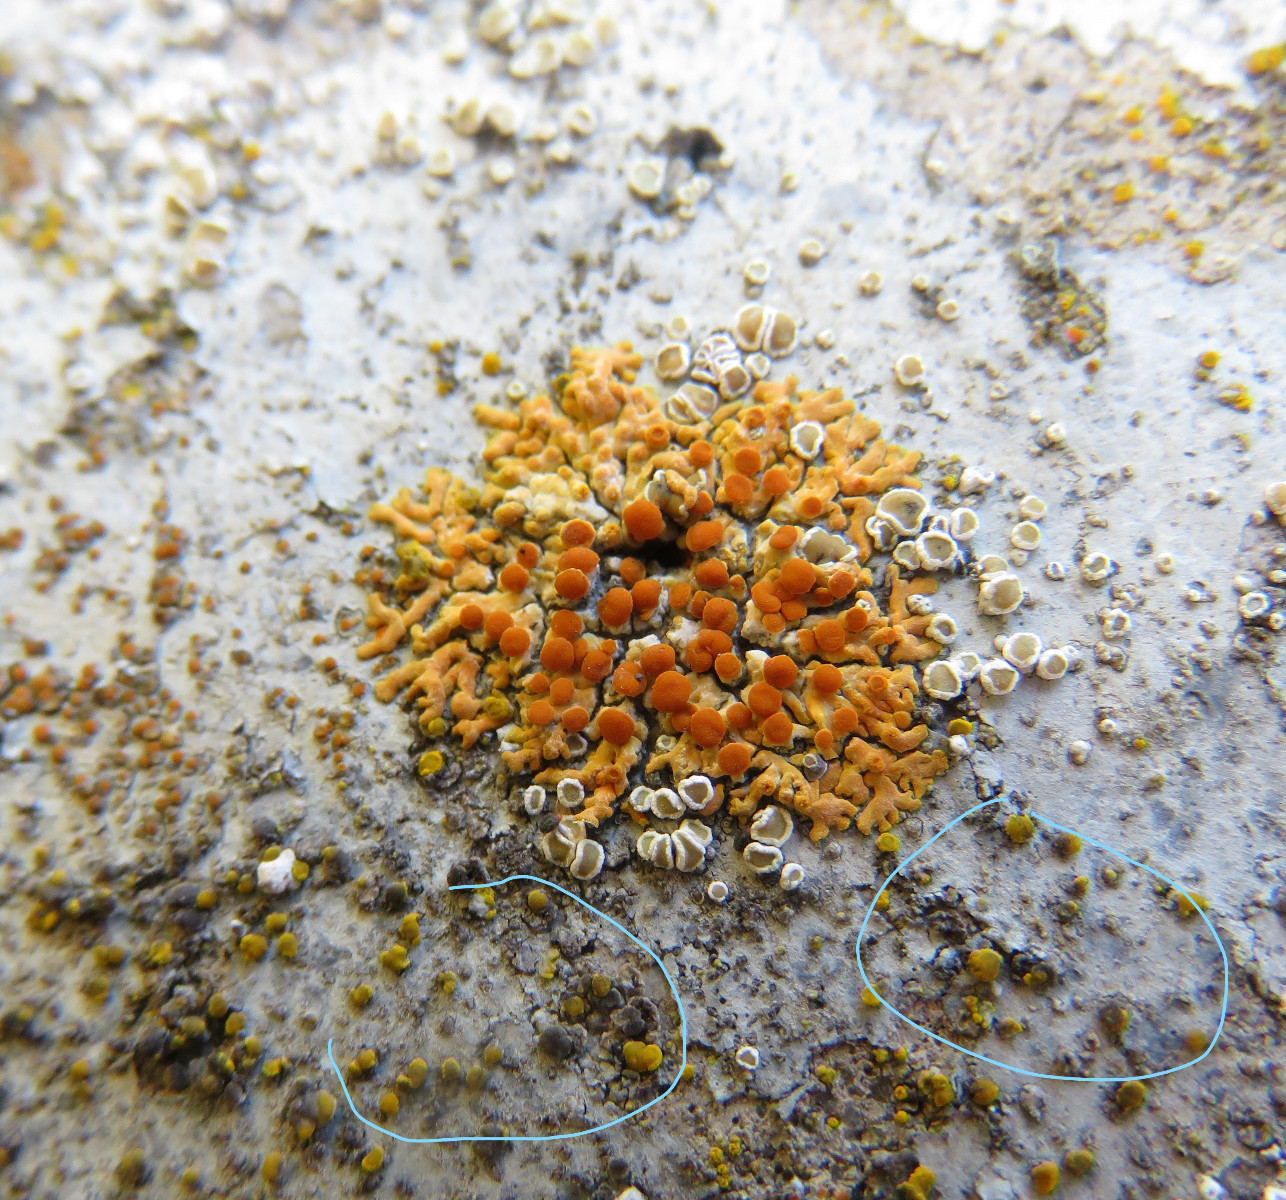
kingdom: Fungi
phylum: Ascomycota
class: Candelariomycetes
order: Candelariales
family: Candelariaceae
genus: Candelariella
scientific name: Candelariella aurella
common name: liden æggeblommelav
